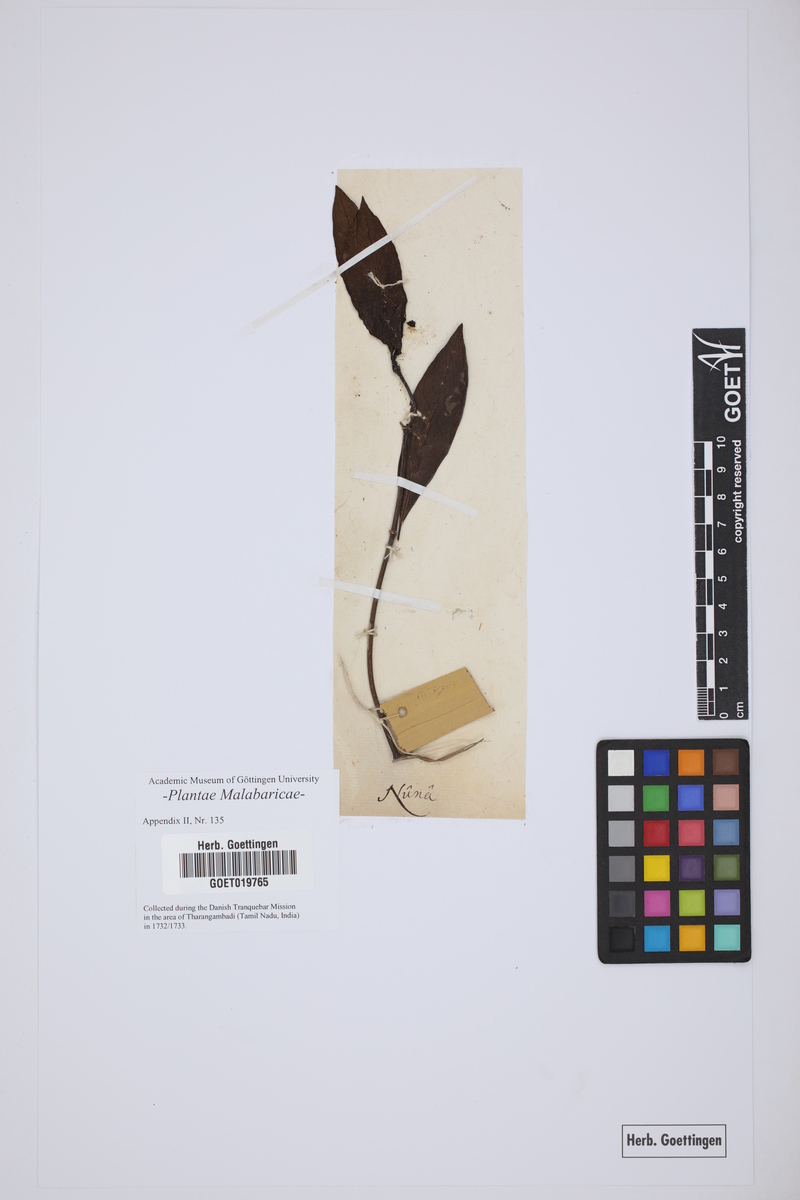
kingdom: Plantae
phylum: Tracheophyta
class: Magnoliopsida
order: Gentianales
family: Rubiaceae
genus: Gynochthodes
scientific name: Gynochthodes umbellata
